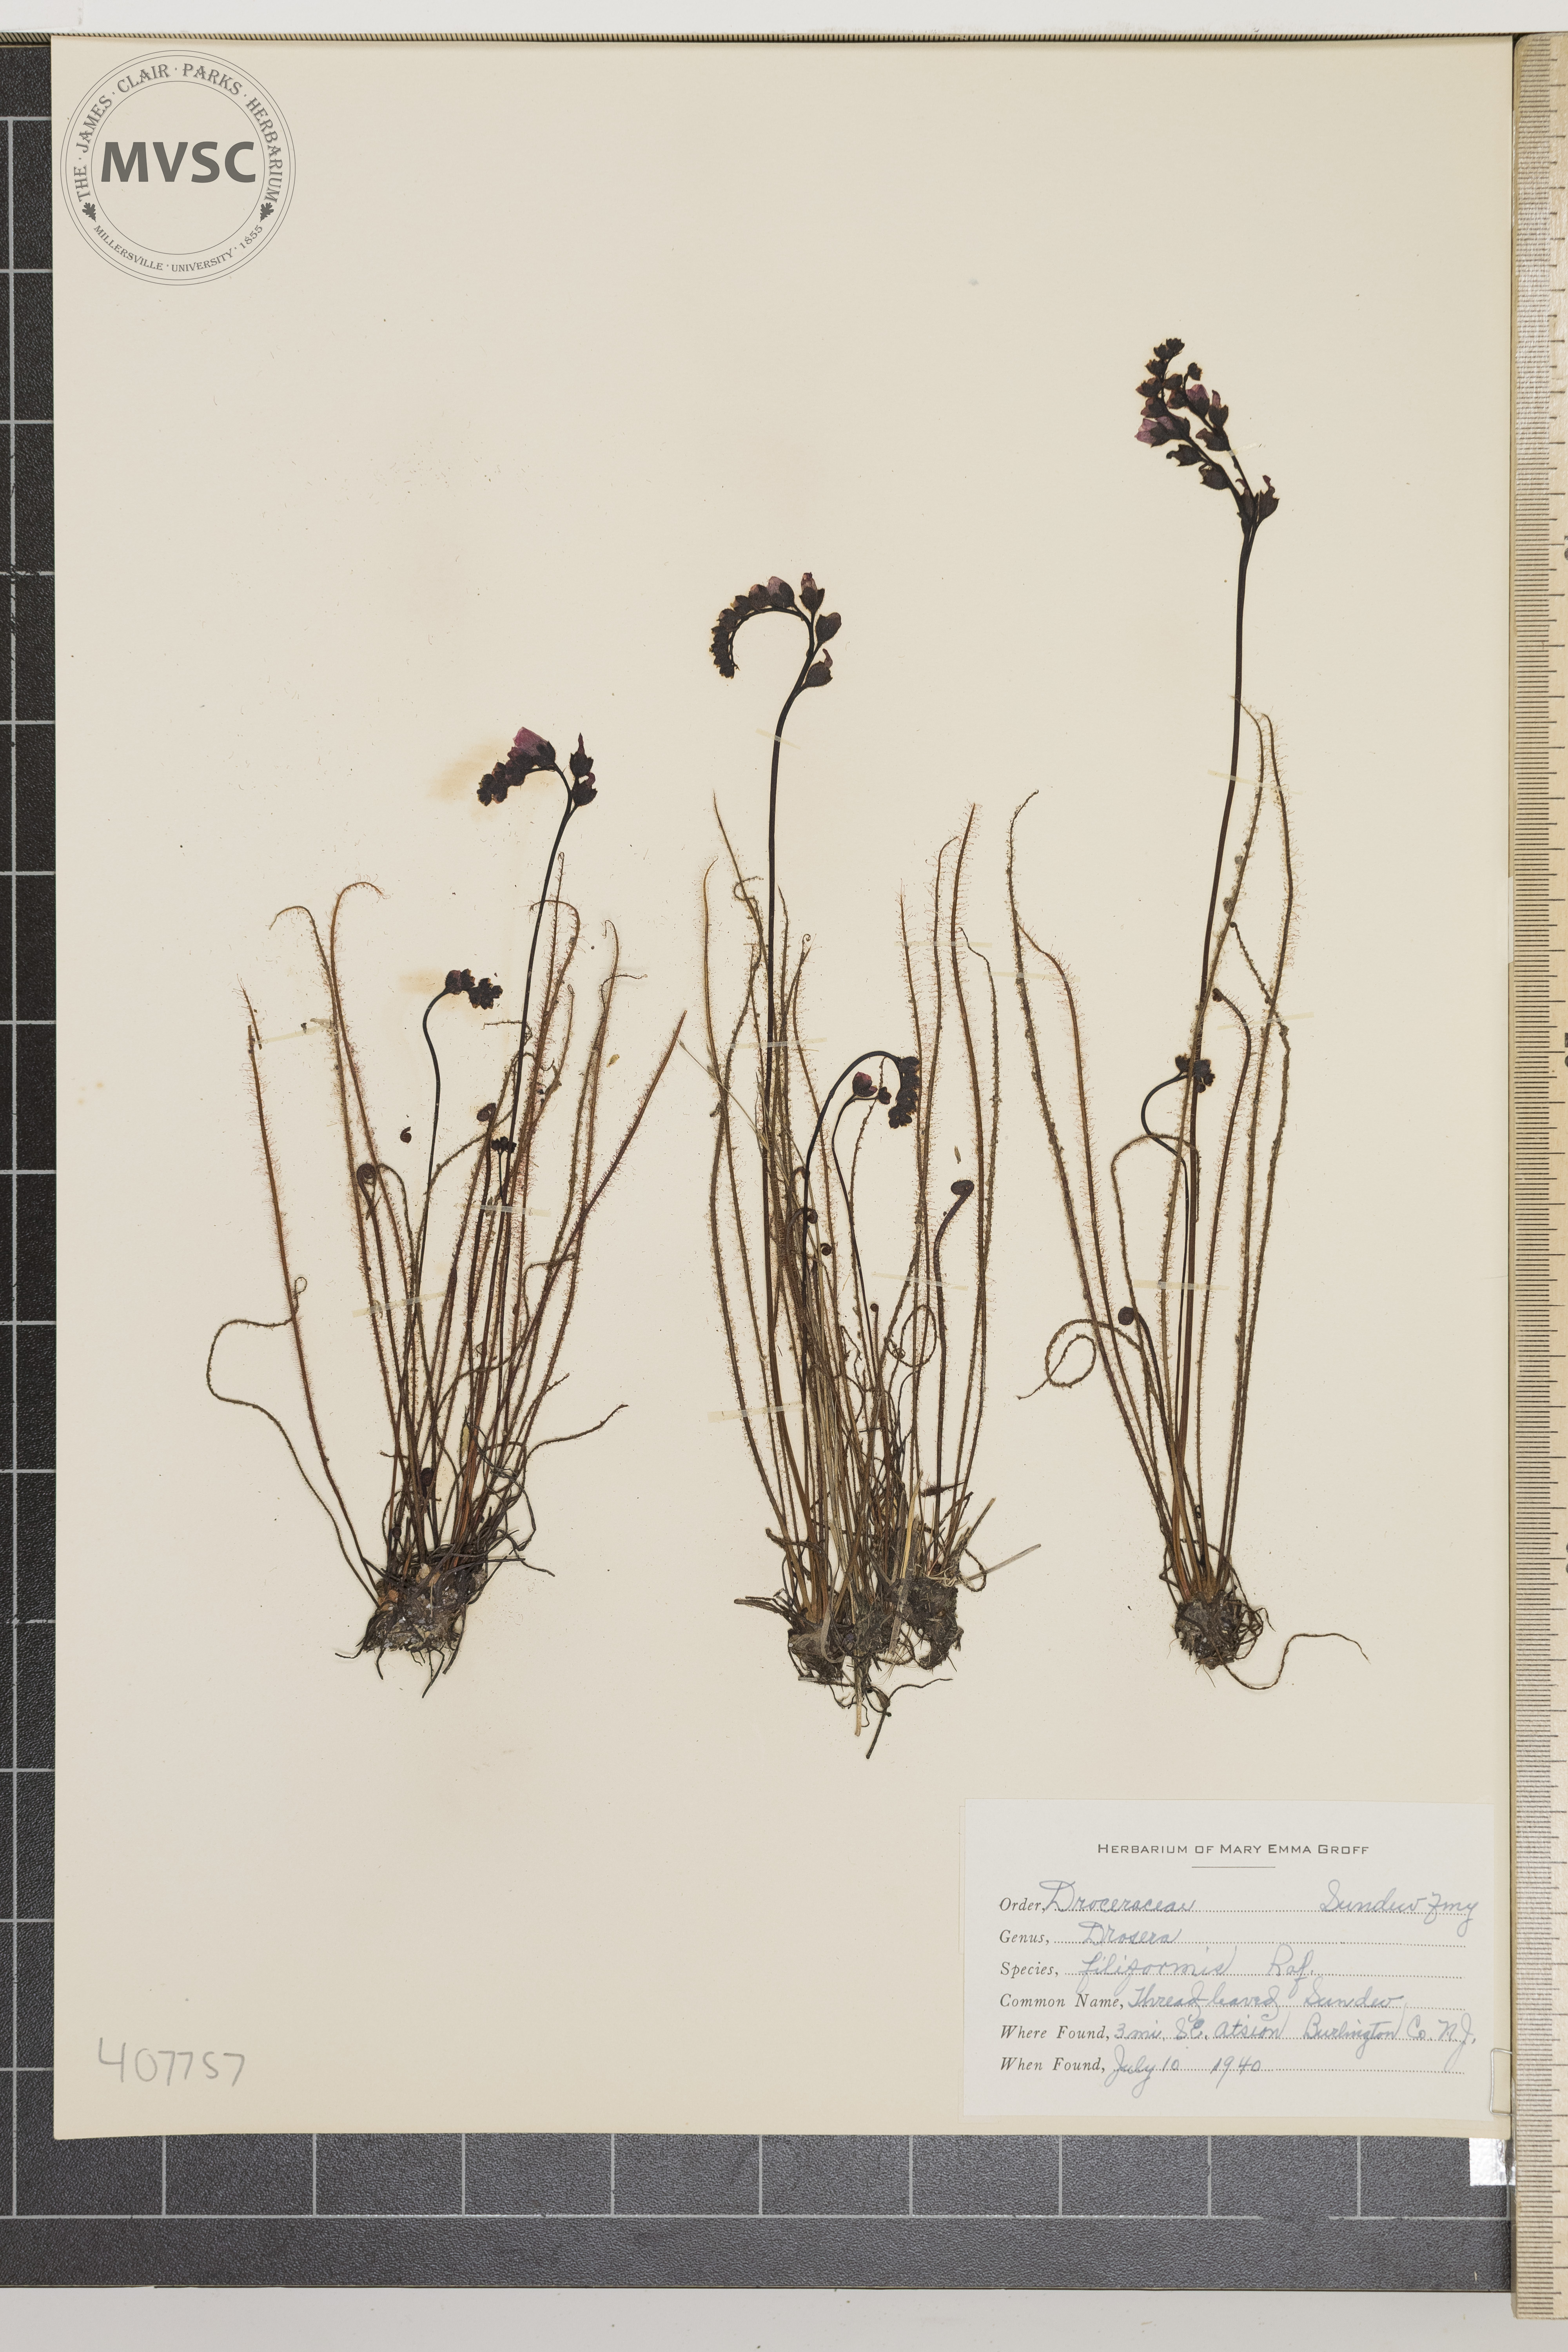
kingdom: Plantae
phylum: Tracheophyta
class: Magnoliopsida
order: Caryophyllales
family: Droseraceae
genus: Drosera
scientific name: Drosera filiformis
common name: Thread-leaved Sundew
